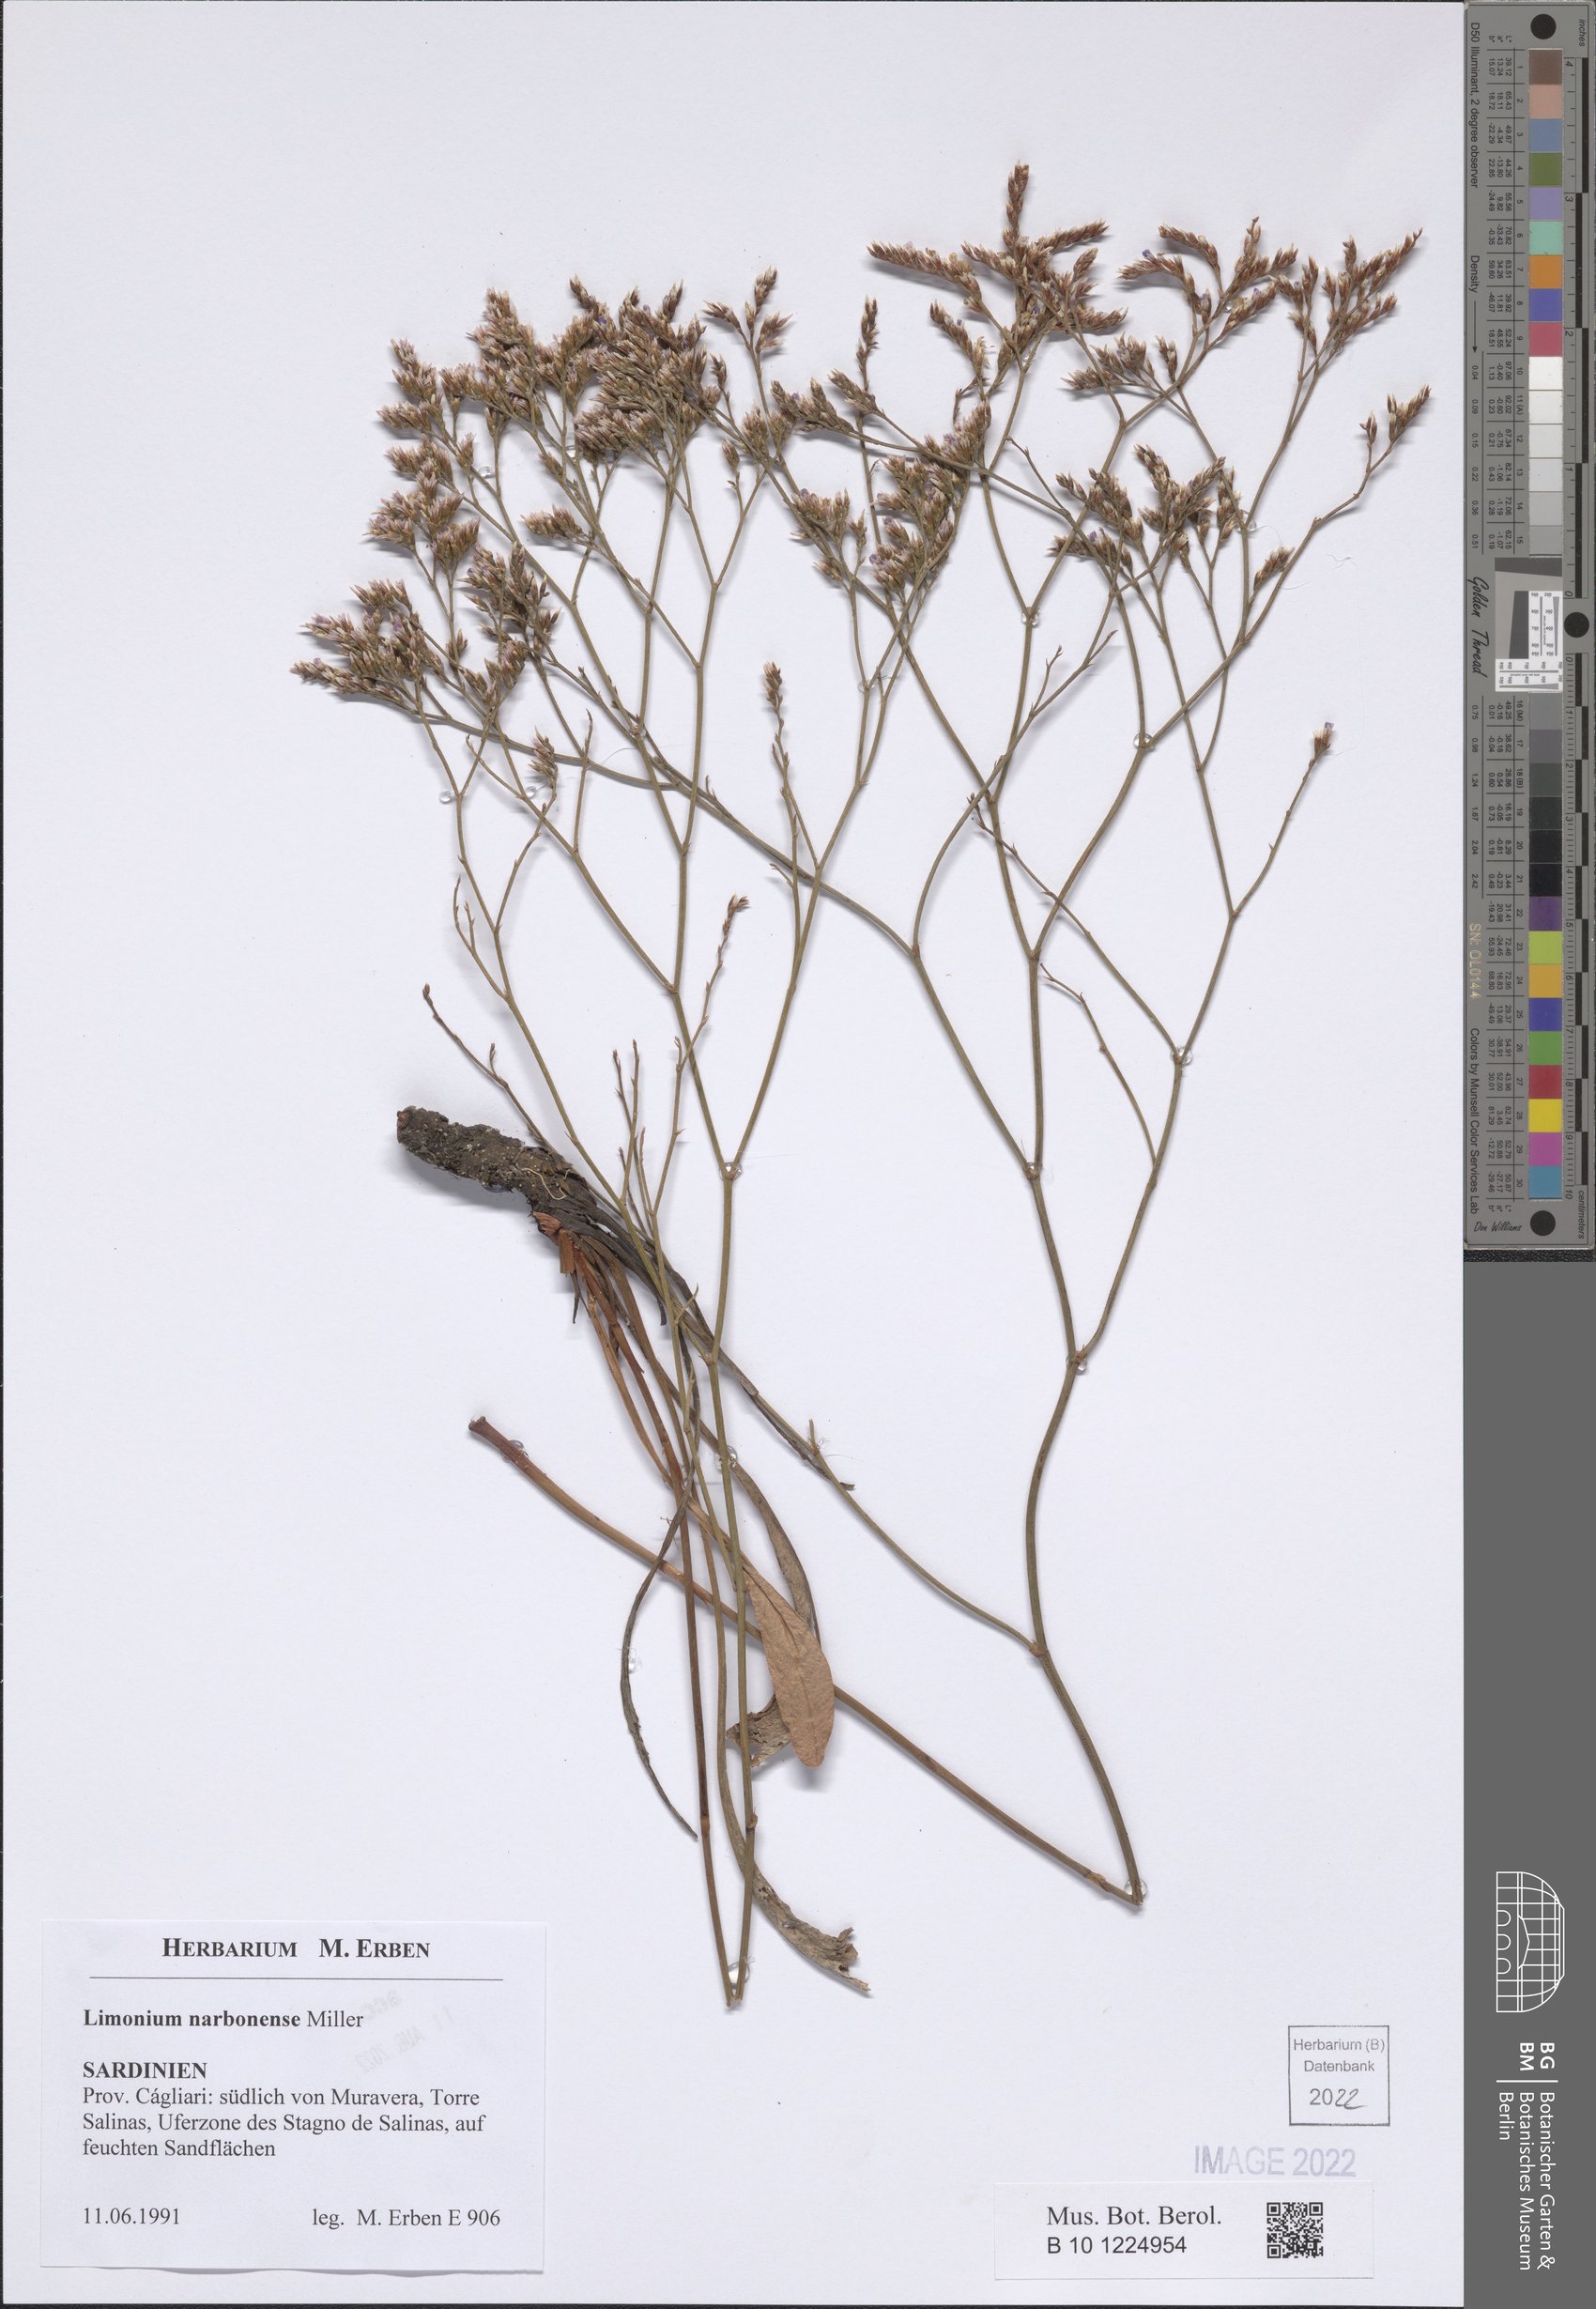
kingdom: Plantae
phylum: Tracheophyta
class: Magnoliopsida
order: Caryophyllales
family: Plumbaginaceae
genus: Limonium
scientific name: Limonium narbonense
